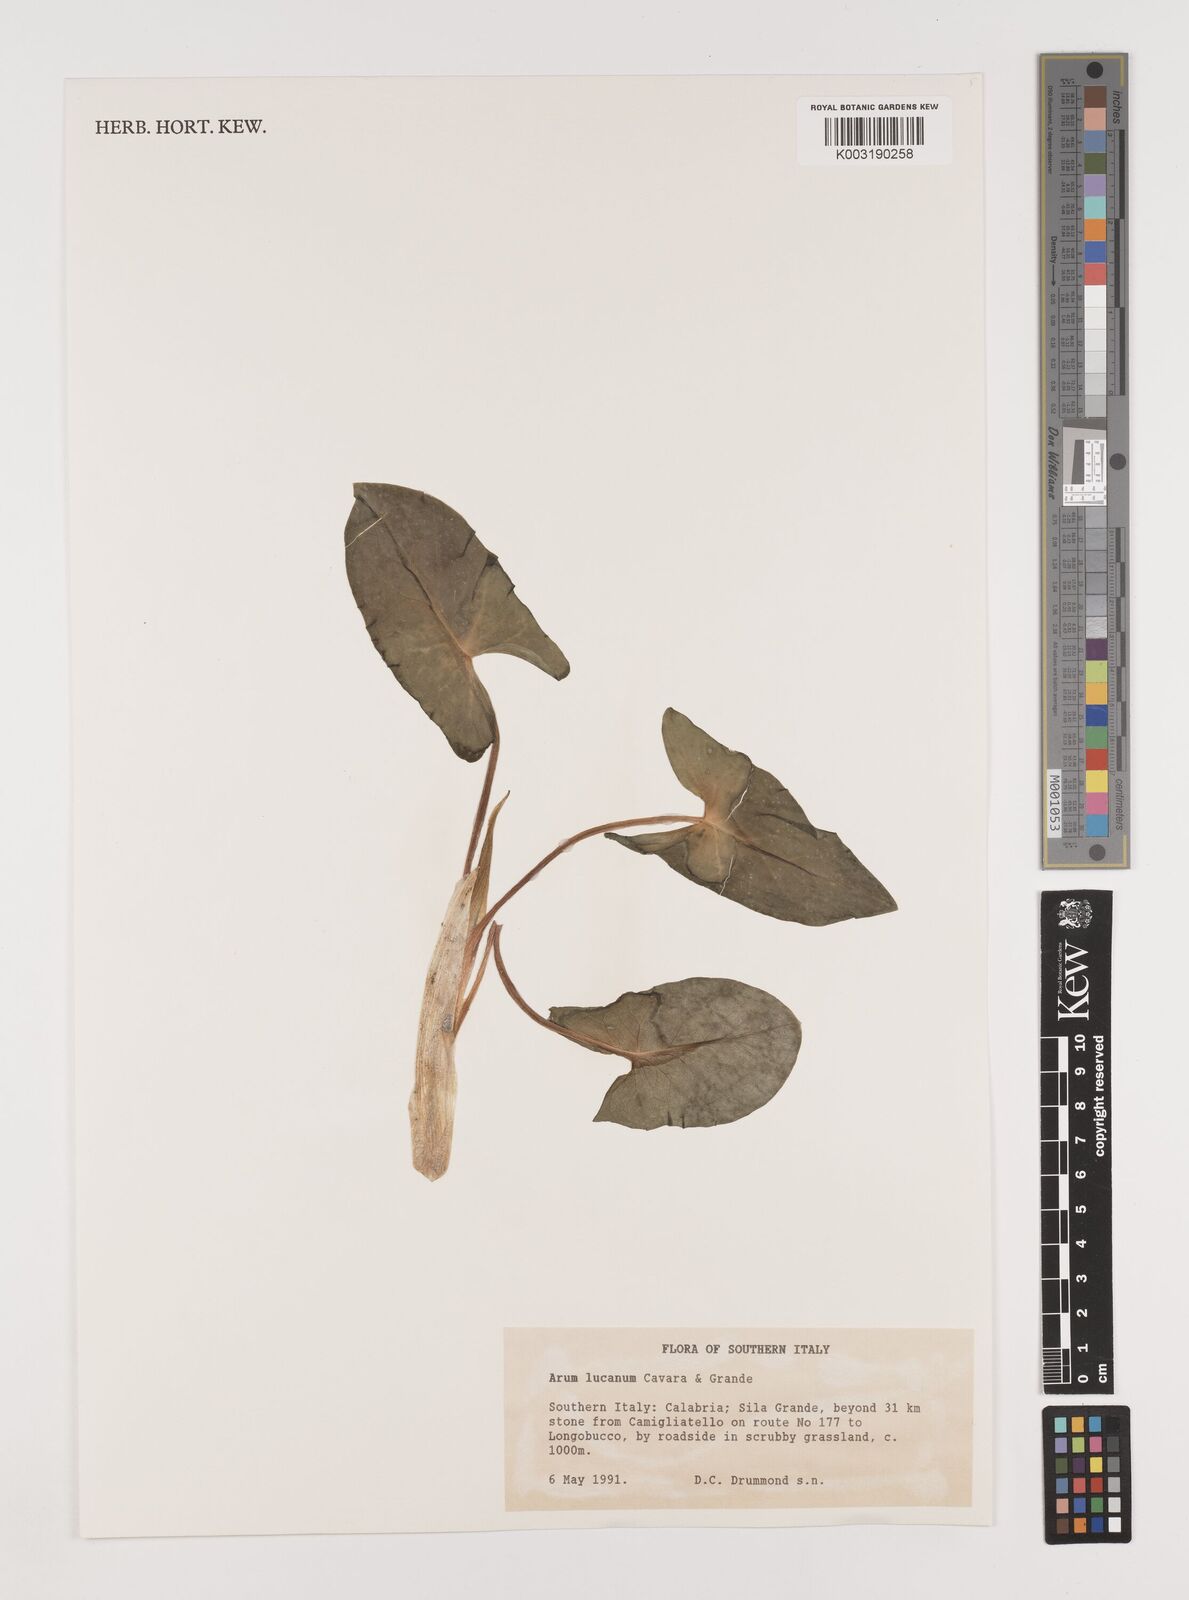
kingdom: Plantae
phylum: Tracheophyta
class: Liliopsida
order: Alismatales
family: Araceae
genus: Arum
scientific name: Arum cylindraceum
